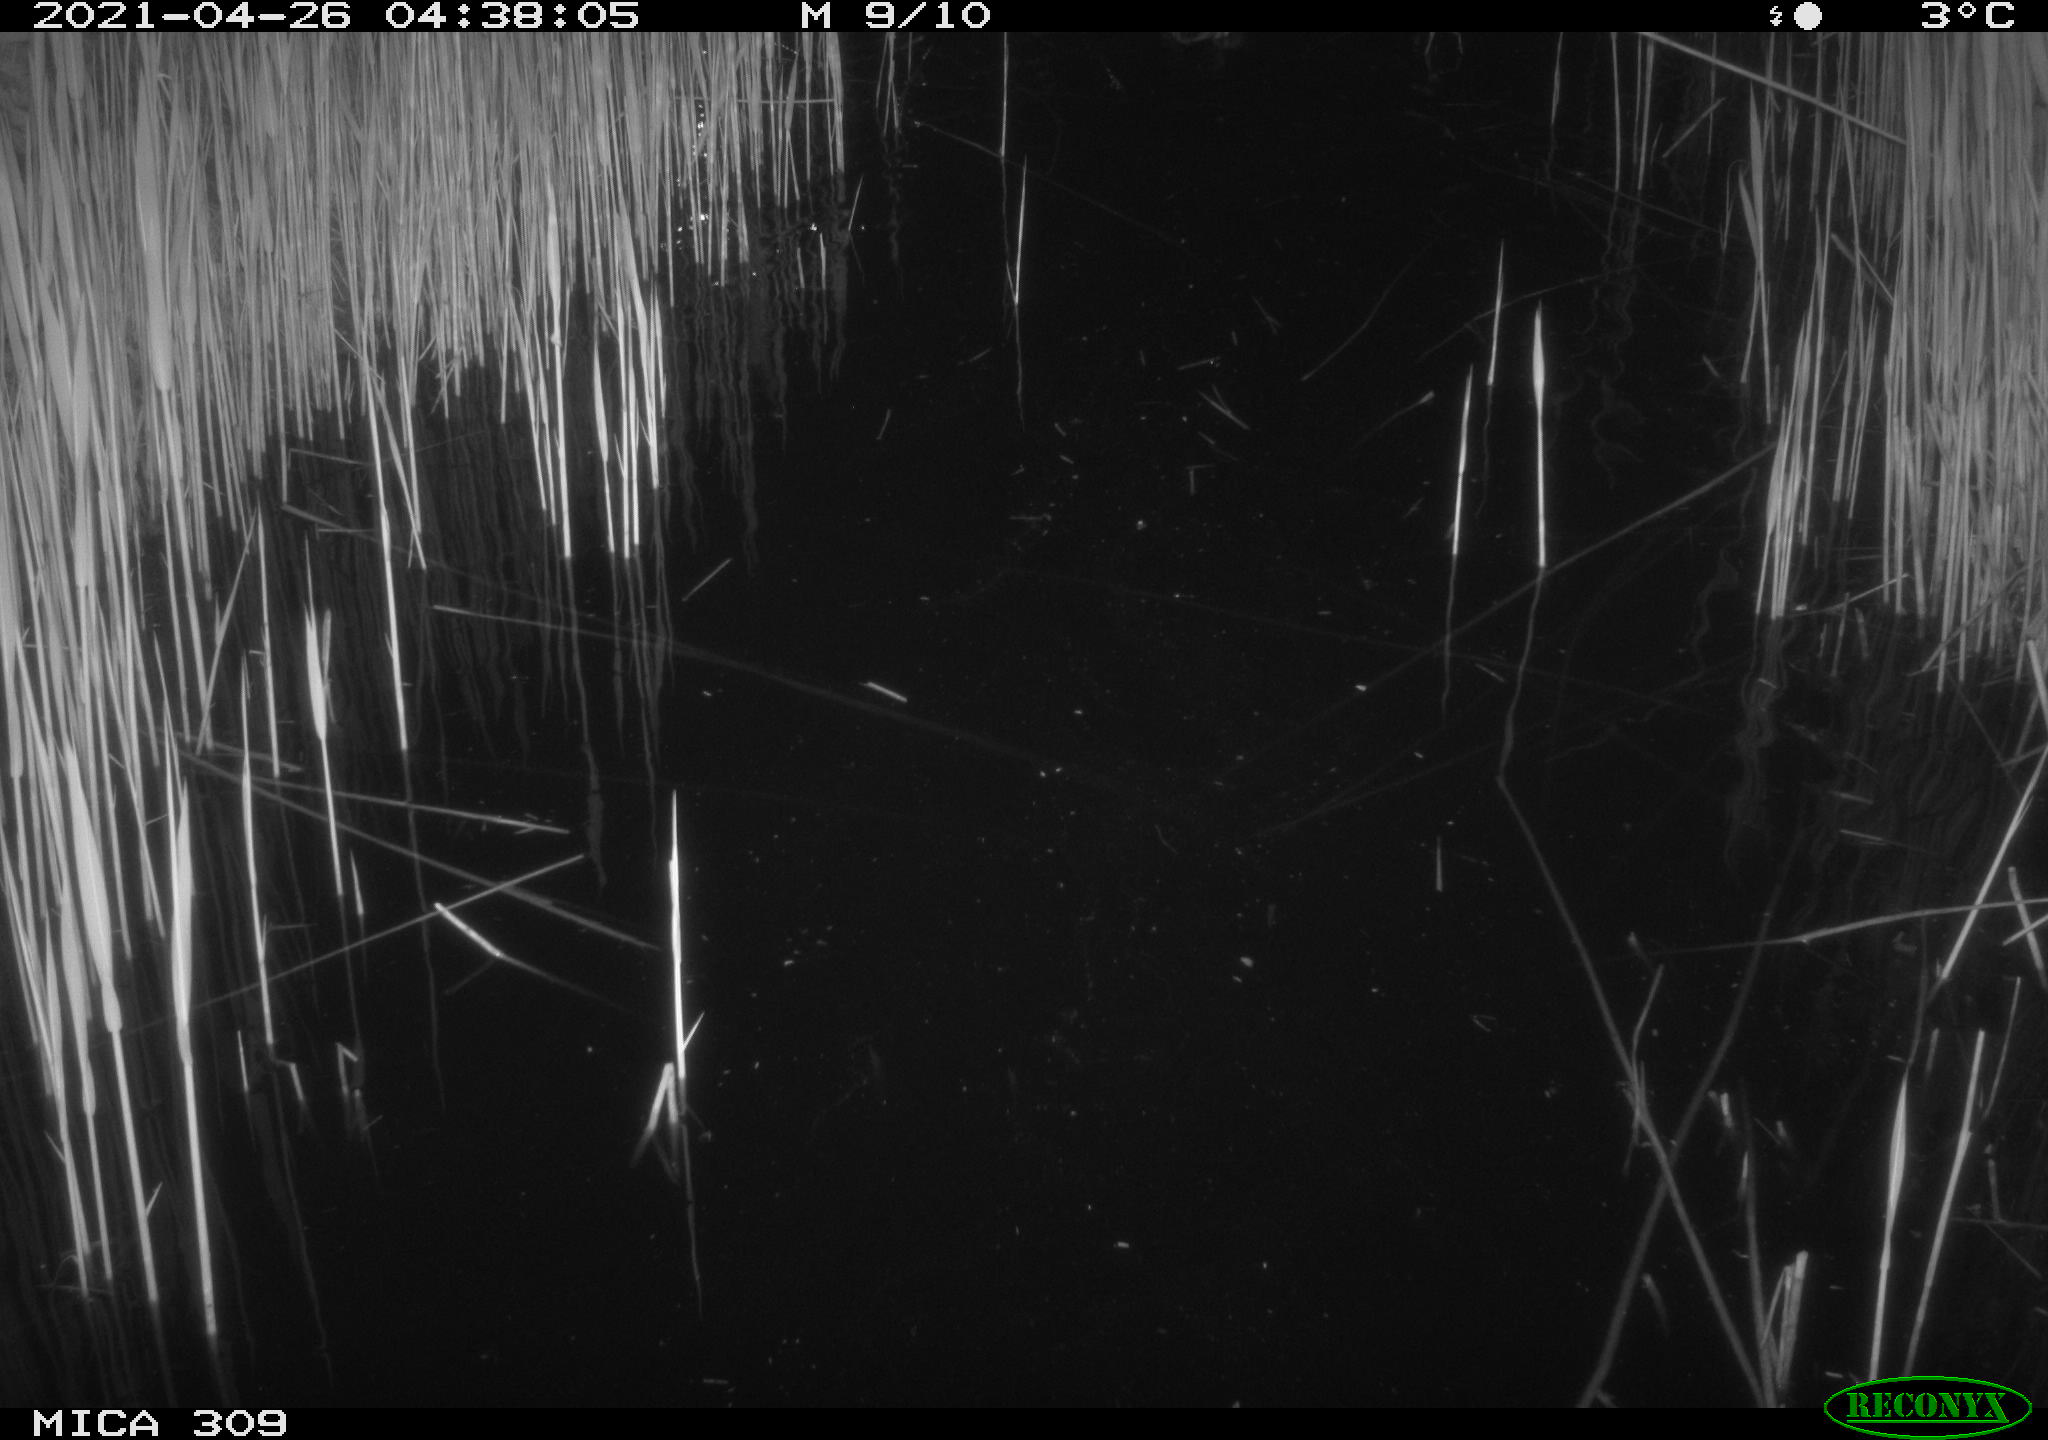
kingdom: Animalia
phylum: Chordata
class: Aves
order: Anseriformes
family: Anatidae
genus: Anas
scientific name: Anas platyrhynchos
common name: Mallard
